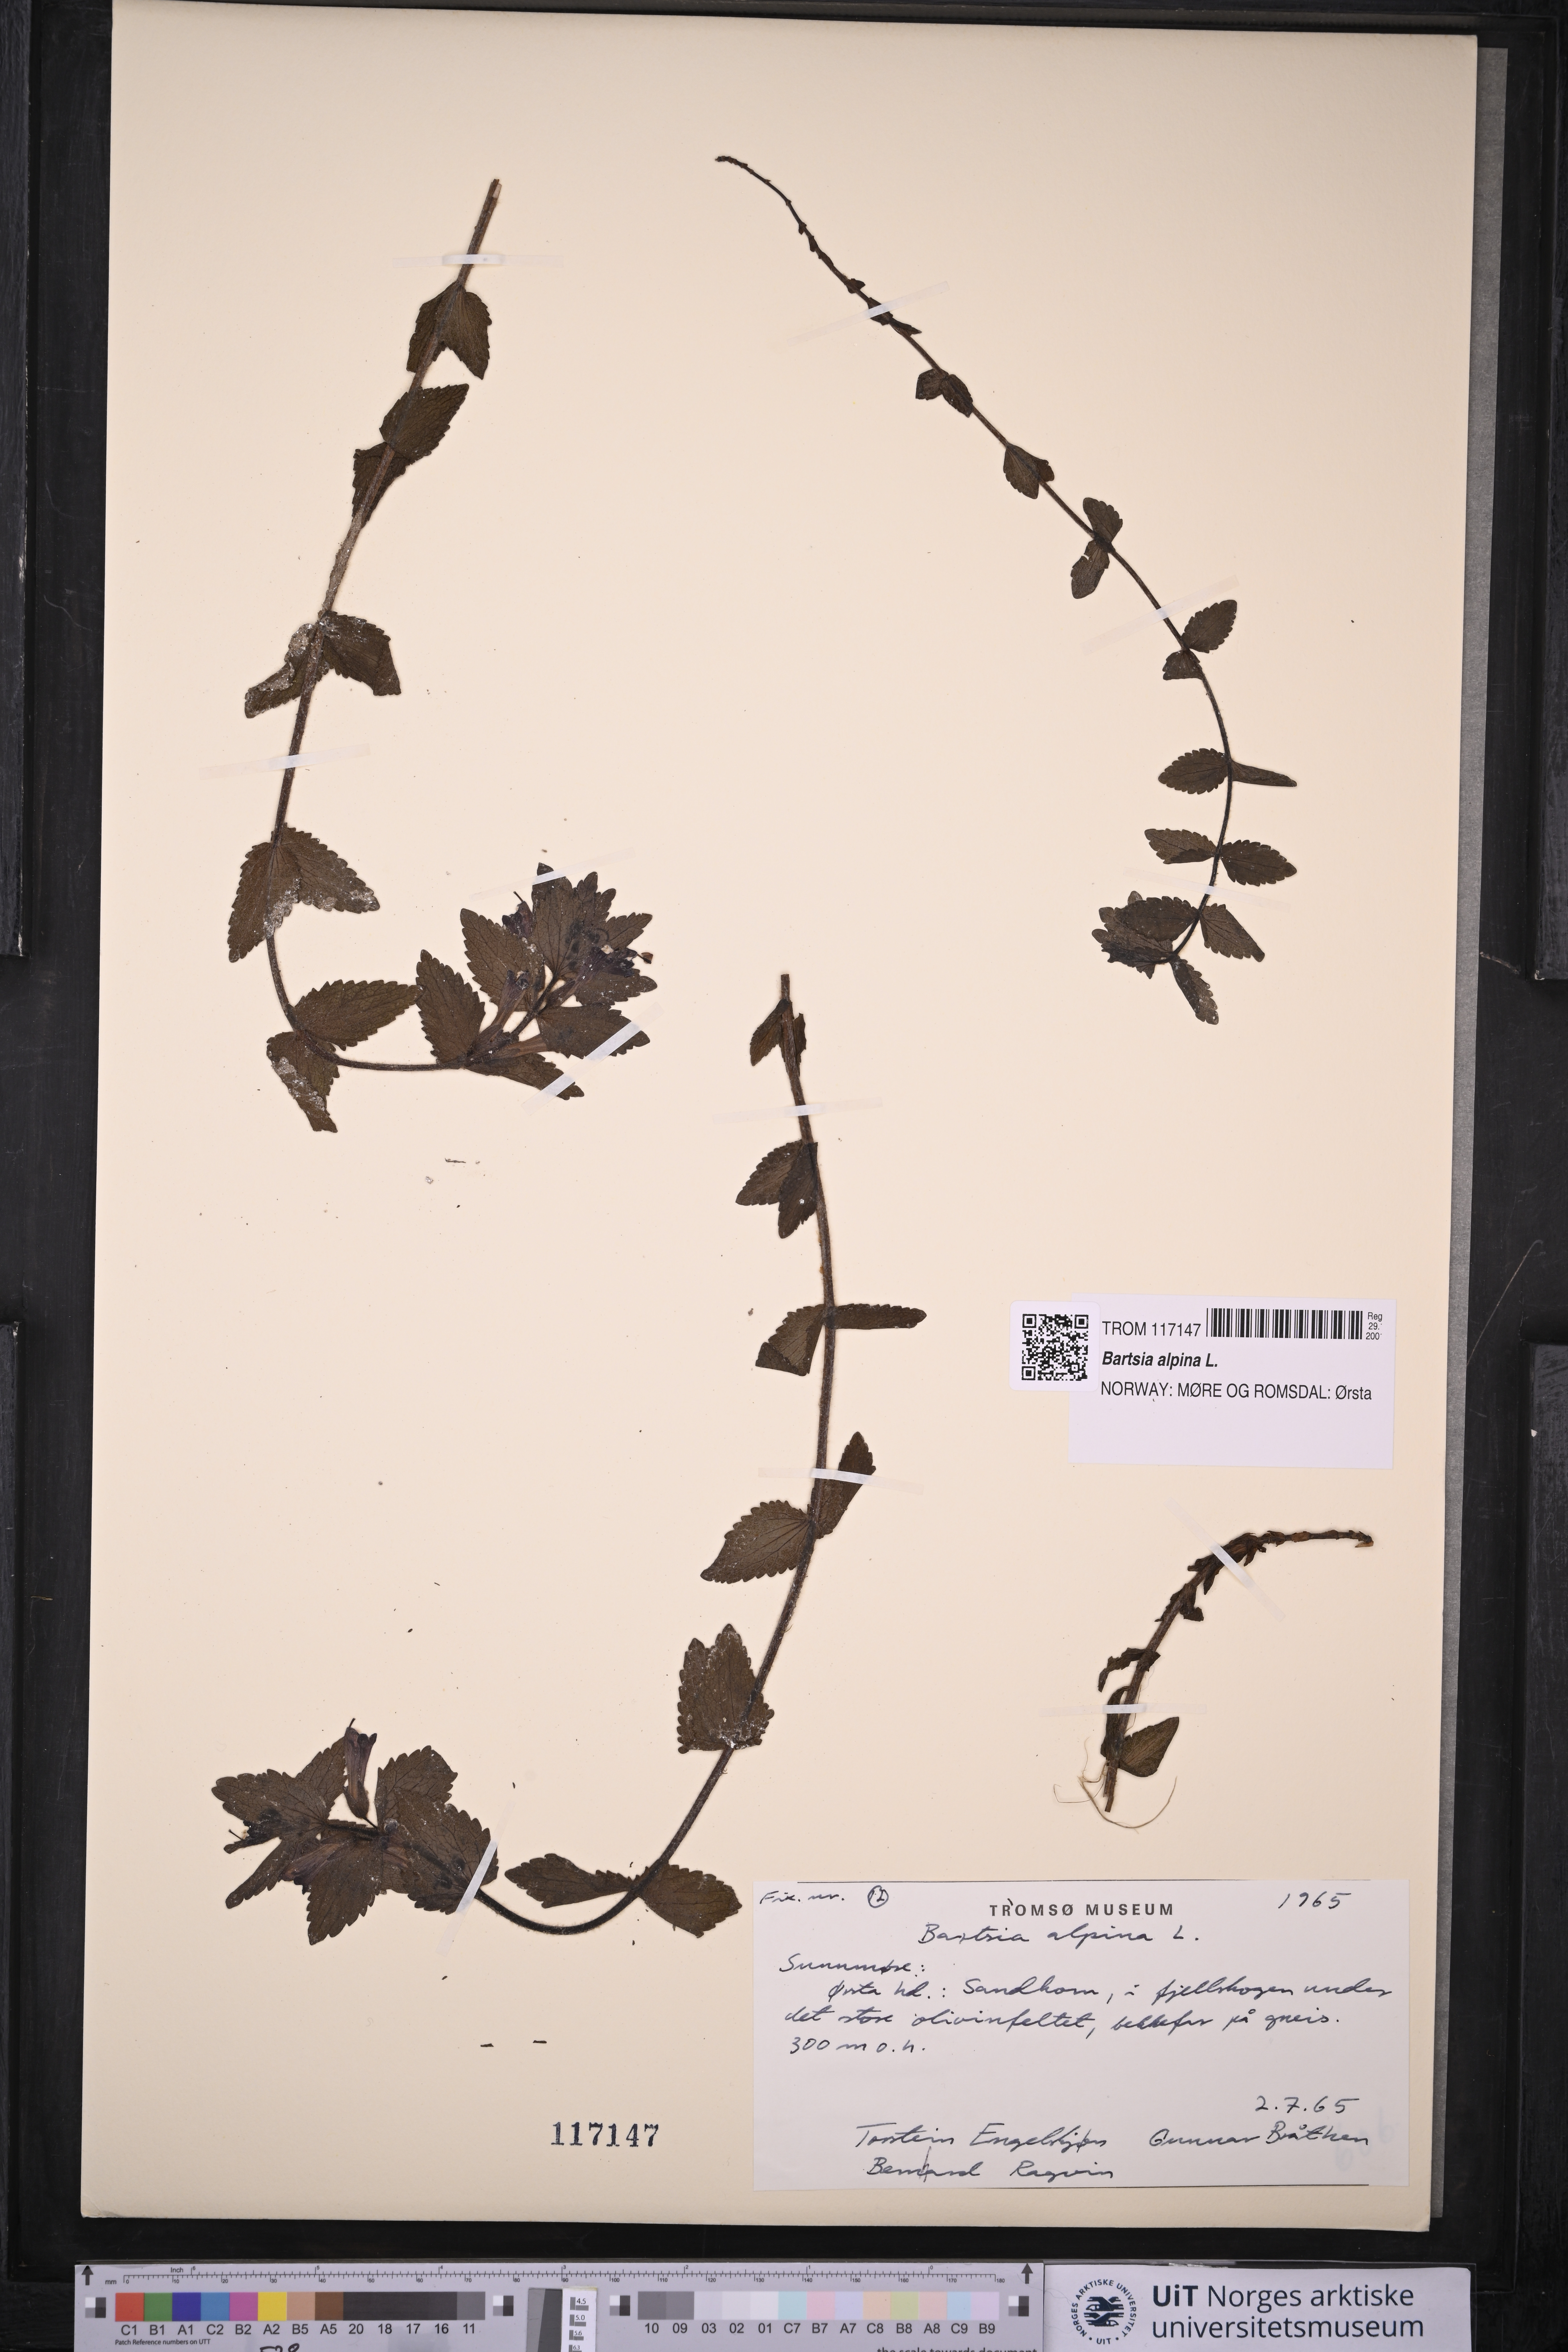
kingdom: Plantae
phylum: Tracheophyta
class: Magnoliopsida
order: Lamiales
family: Orobanchaceae
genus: Bartsia
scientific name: Bartsia alpina
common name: Alpine bartsia
